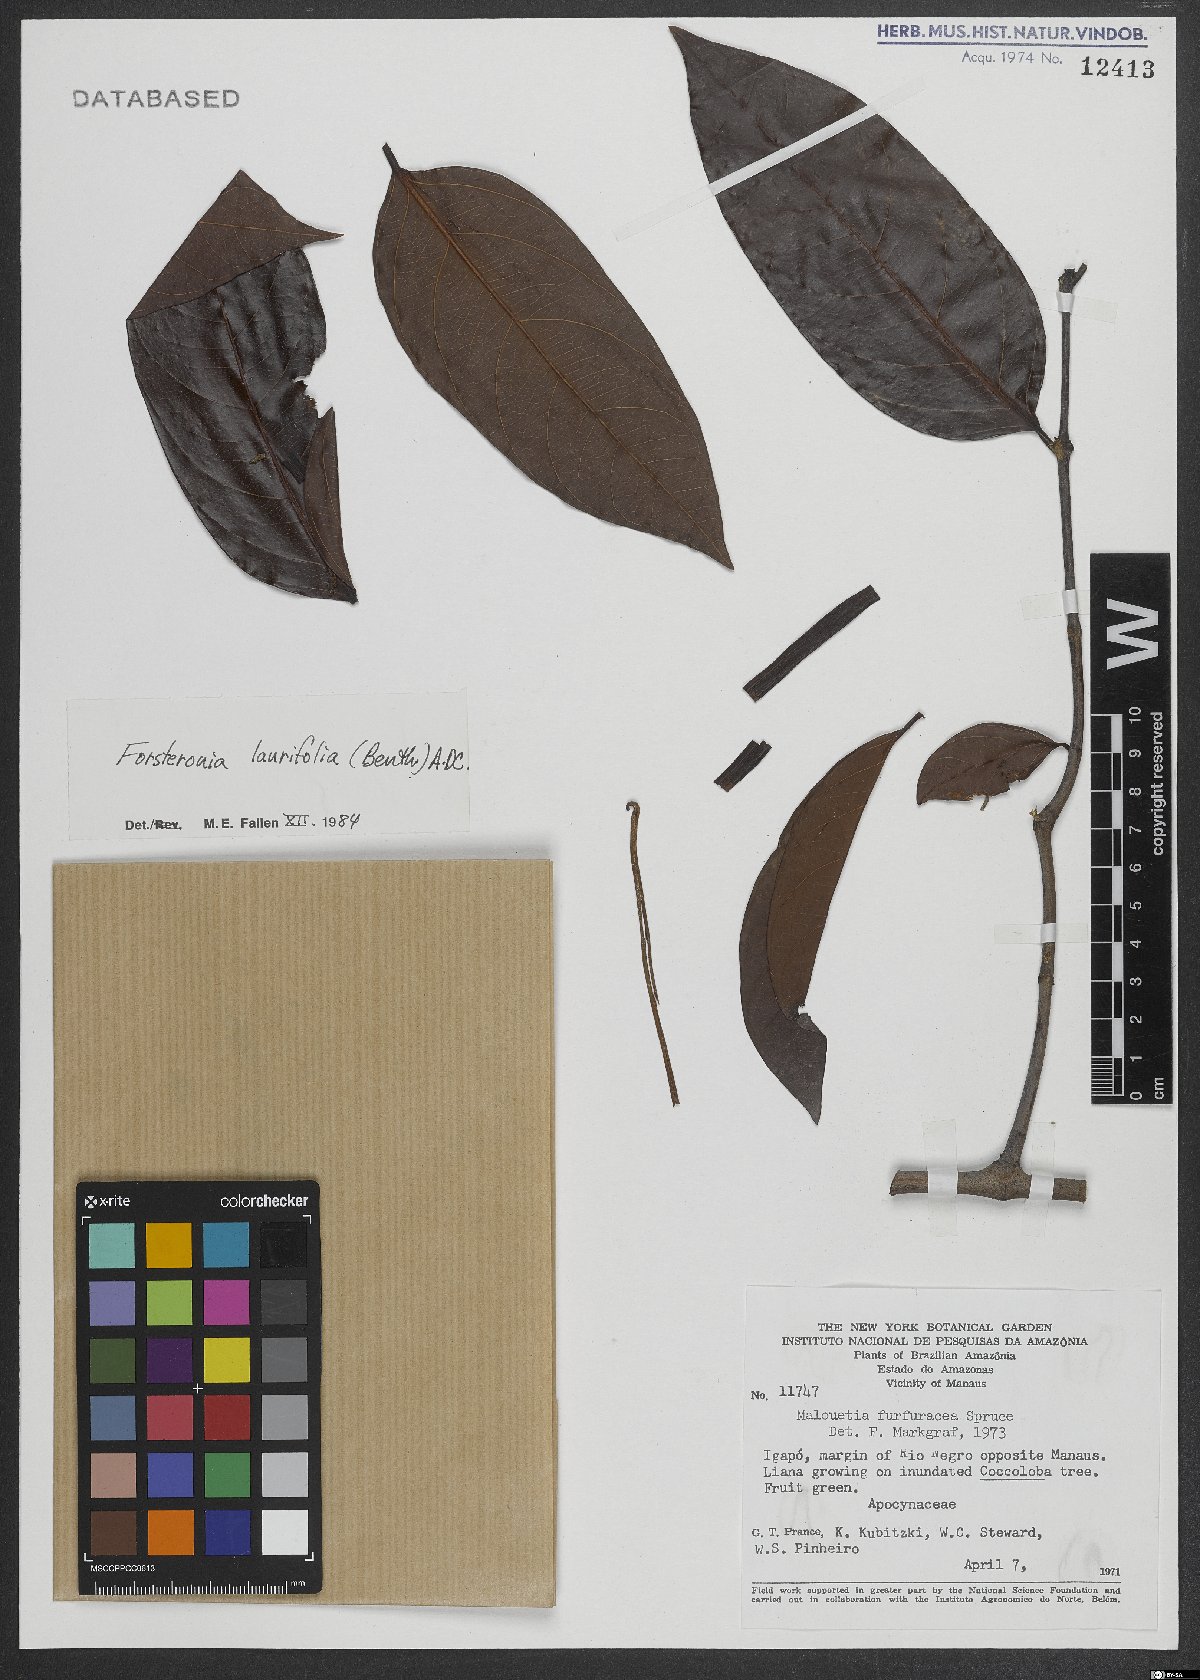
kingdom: Plantae
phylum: Tracheophyta
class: Magnoliopsida
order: Gentianales
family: Apocynaceae
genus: Forsteronia
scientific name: Forsteronia laurifolia
